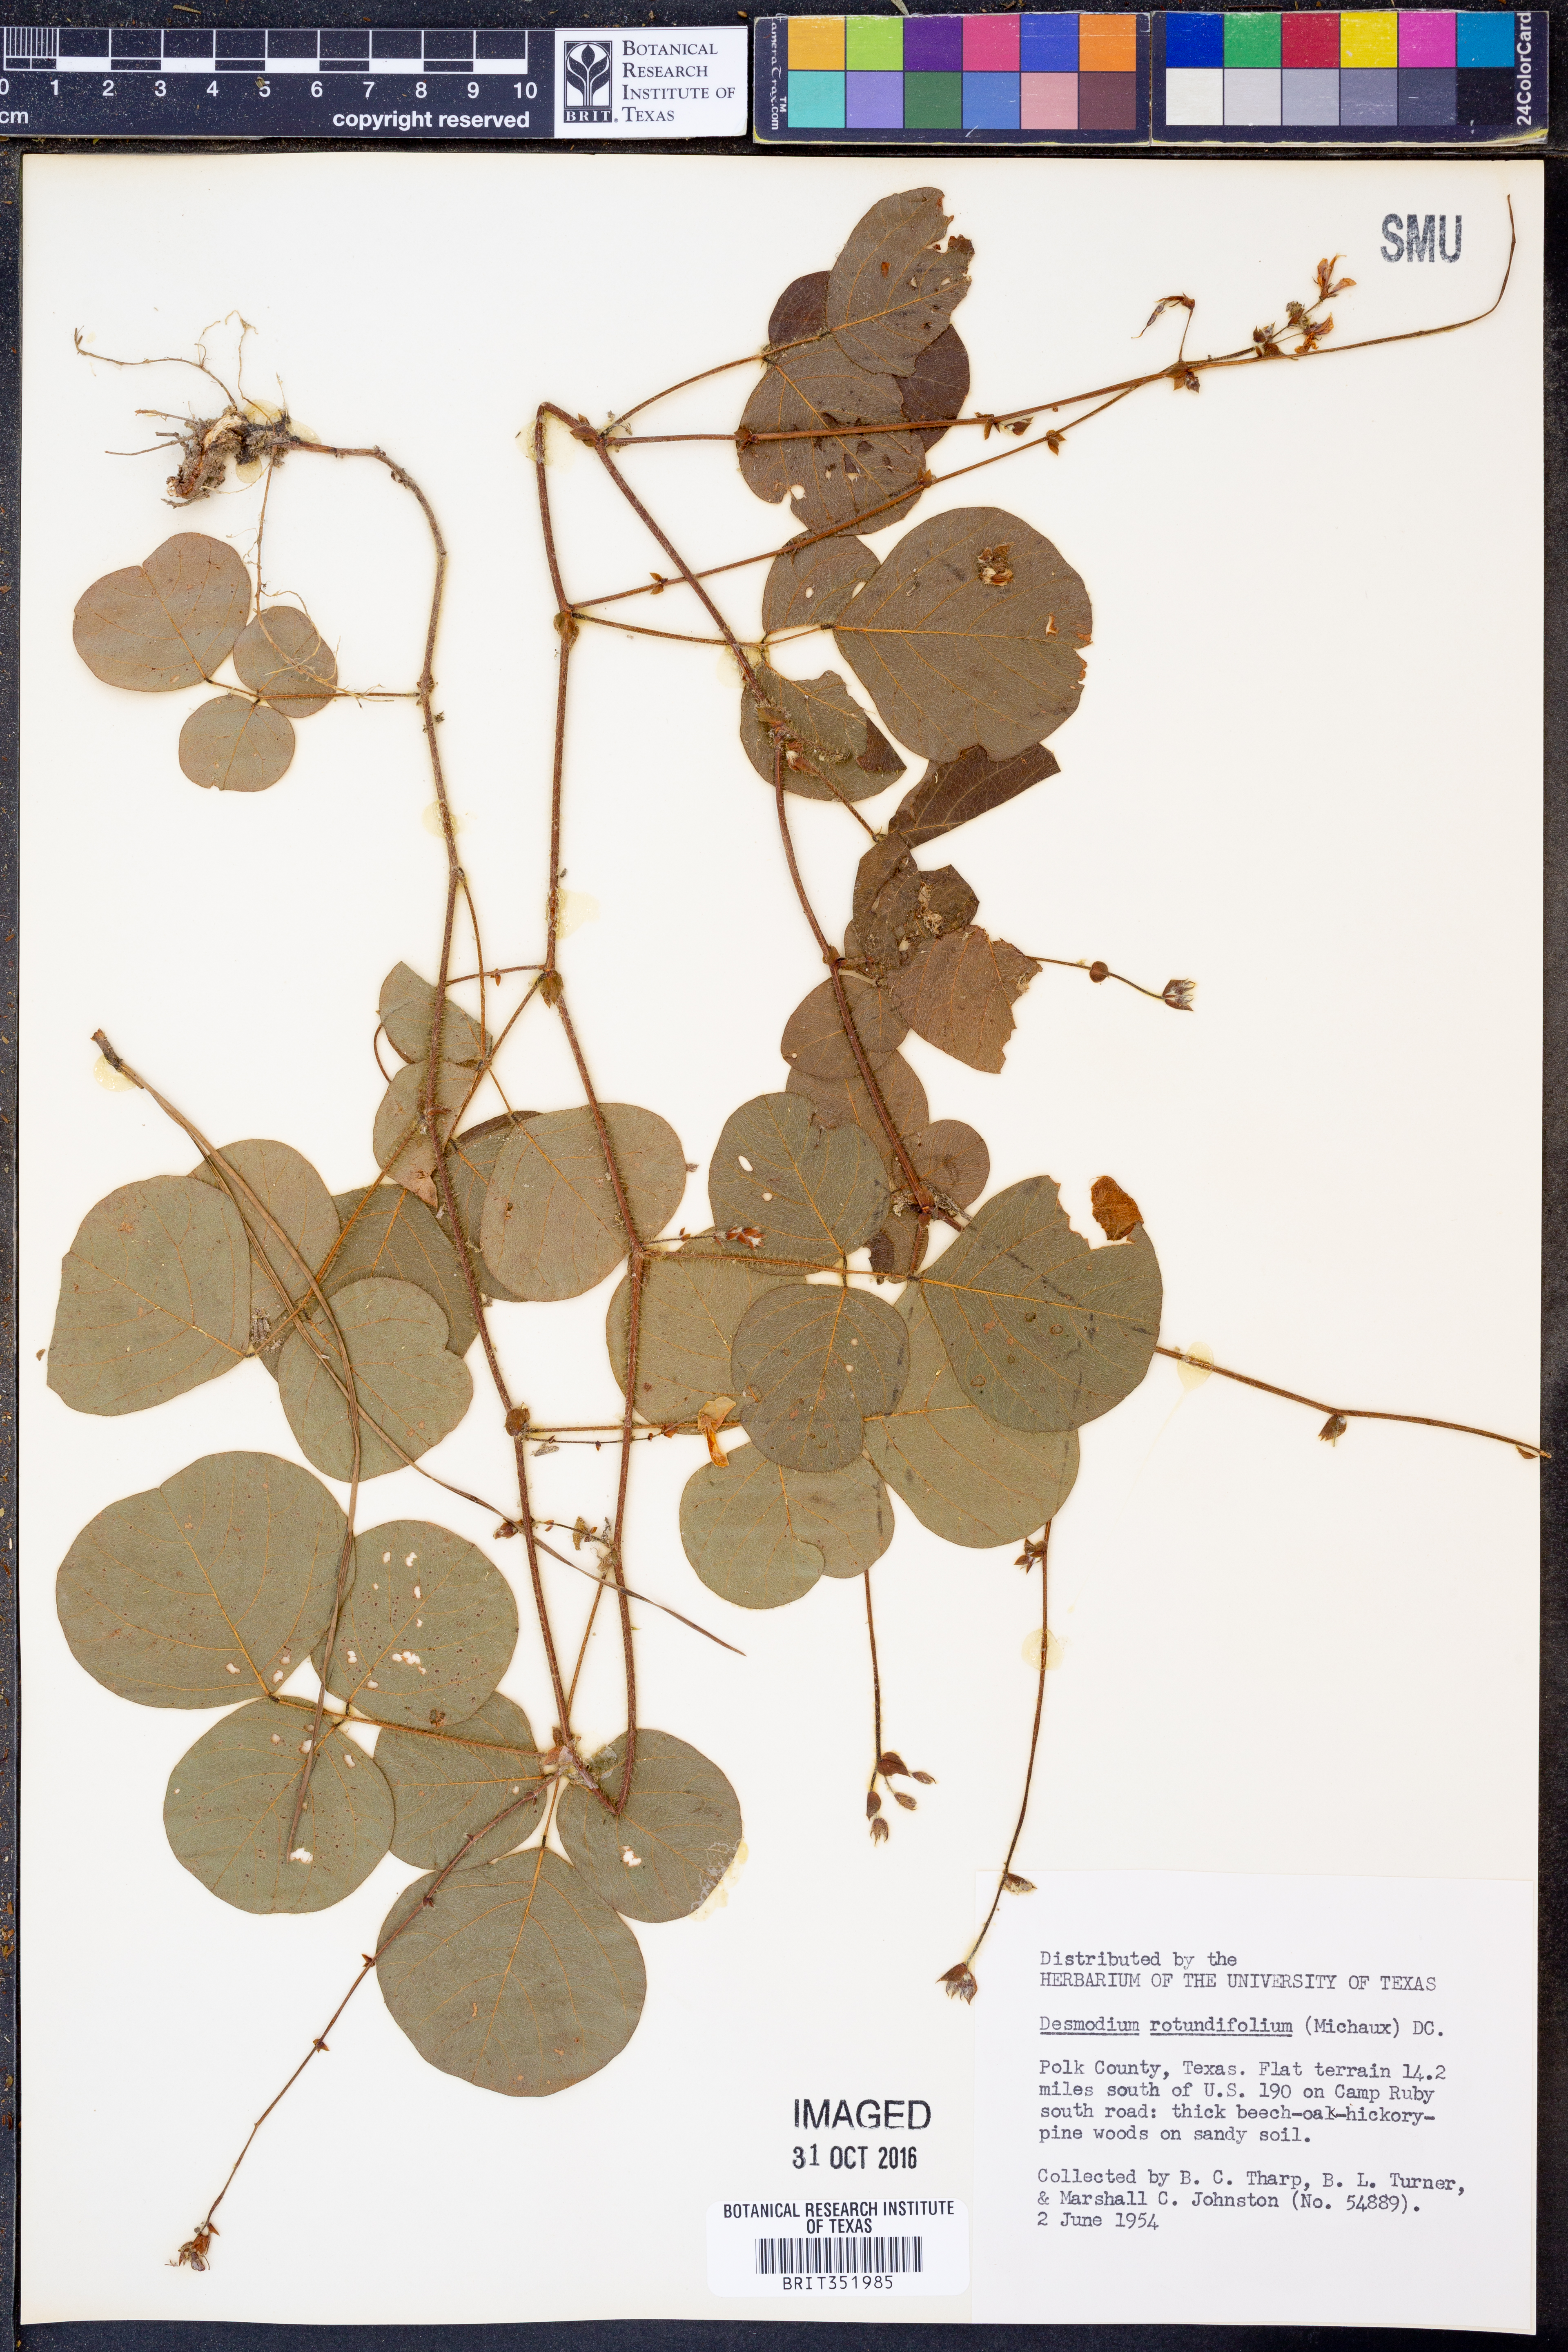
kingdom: Plantae
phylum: Tracheophyta
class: Magnoliopsida
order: Fabales
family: Fabaceae
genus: Desmodium
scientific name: Desmodium rotundifolium
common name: Dollarleaf
